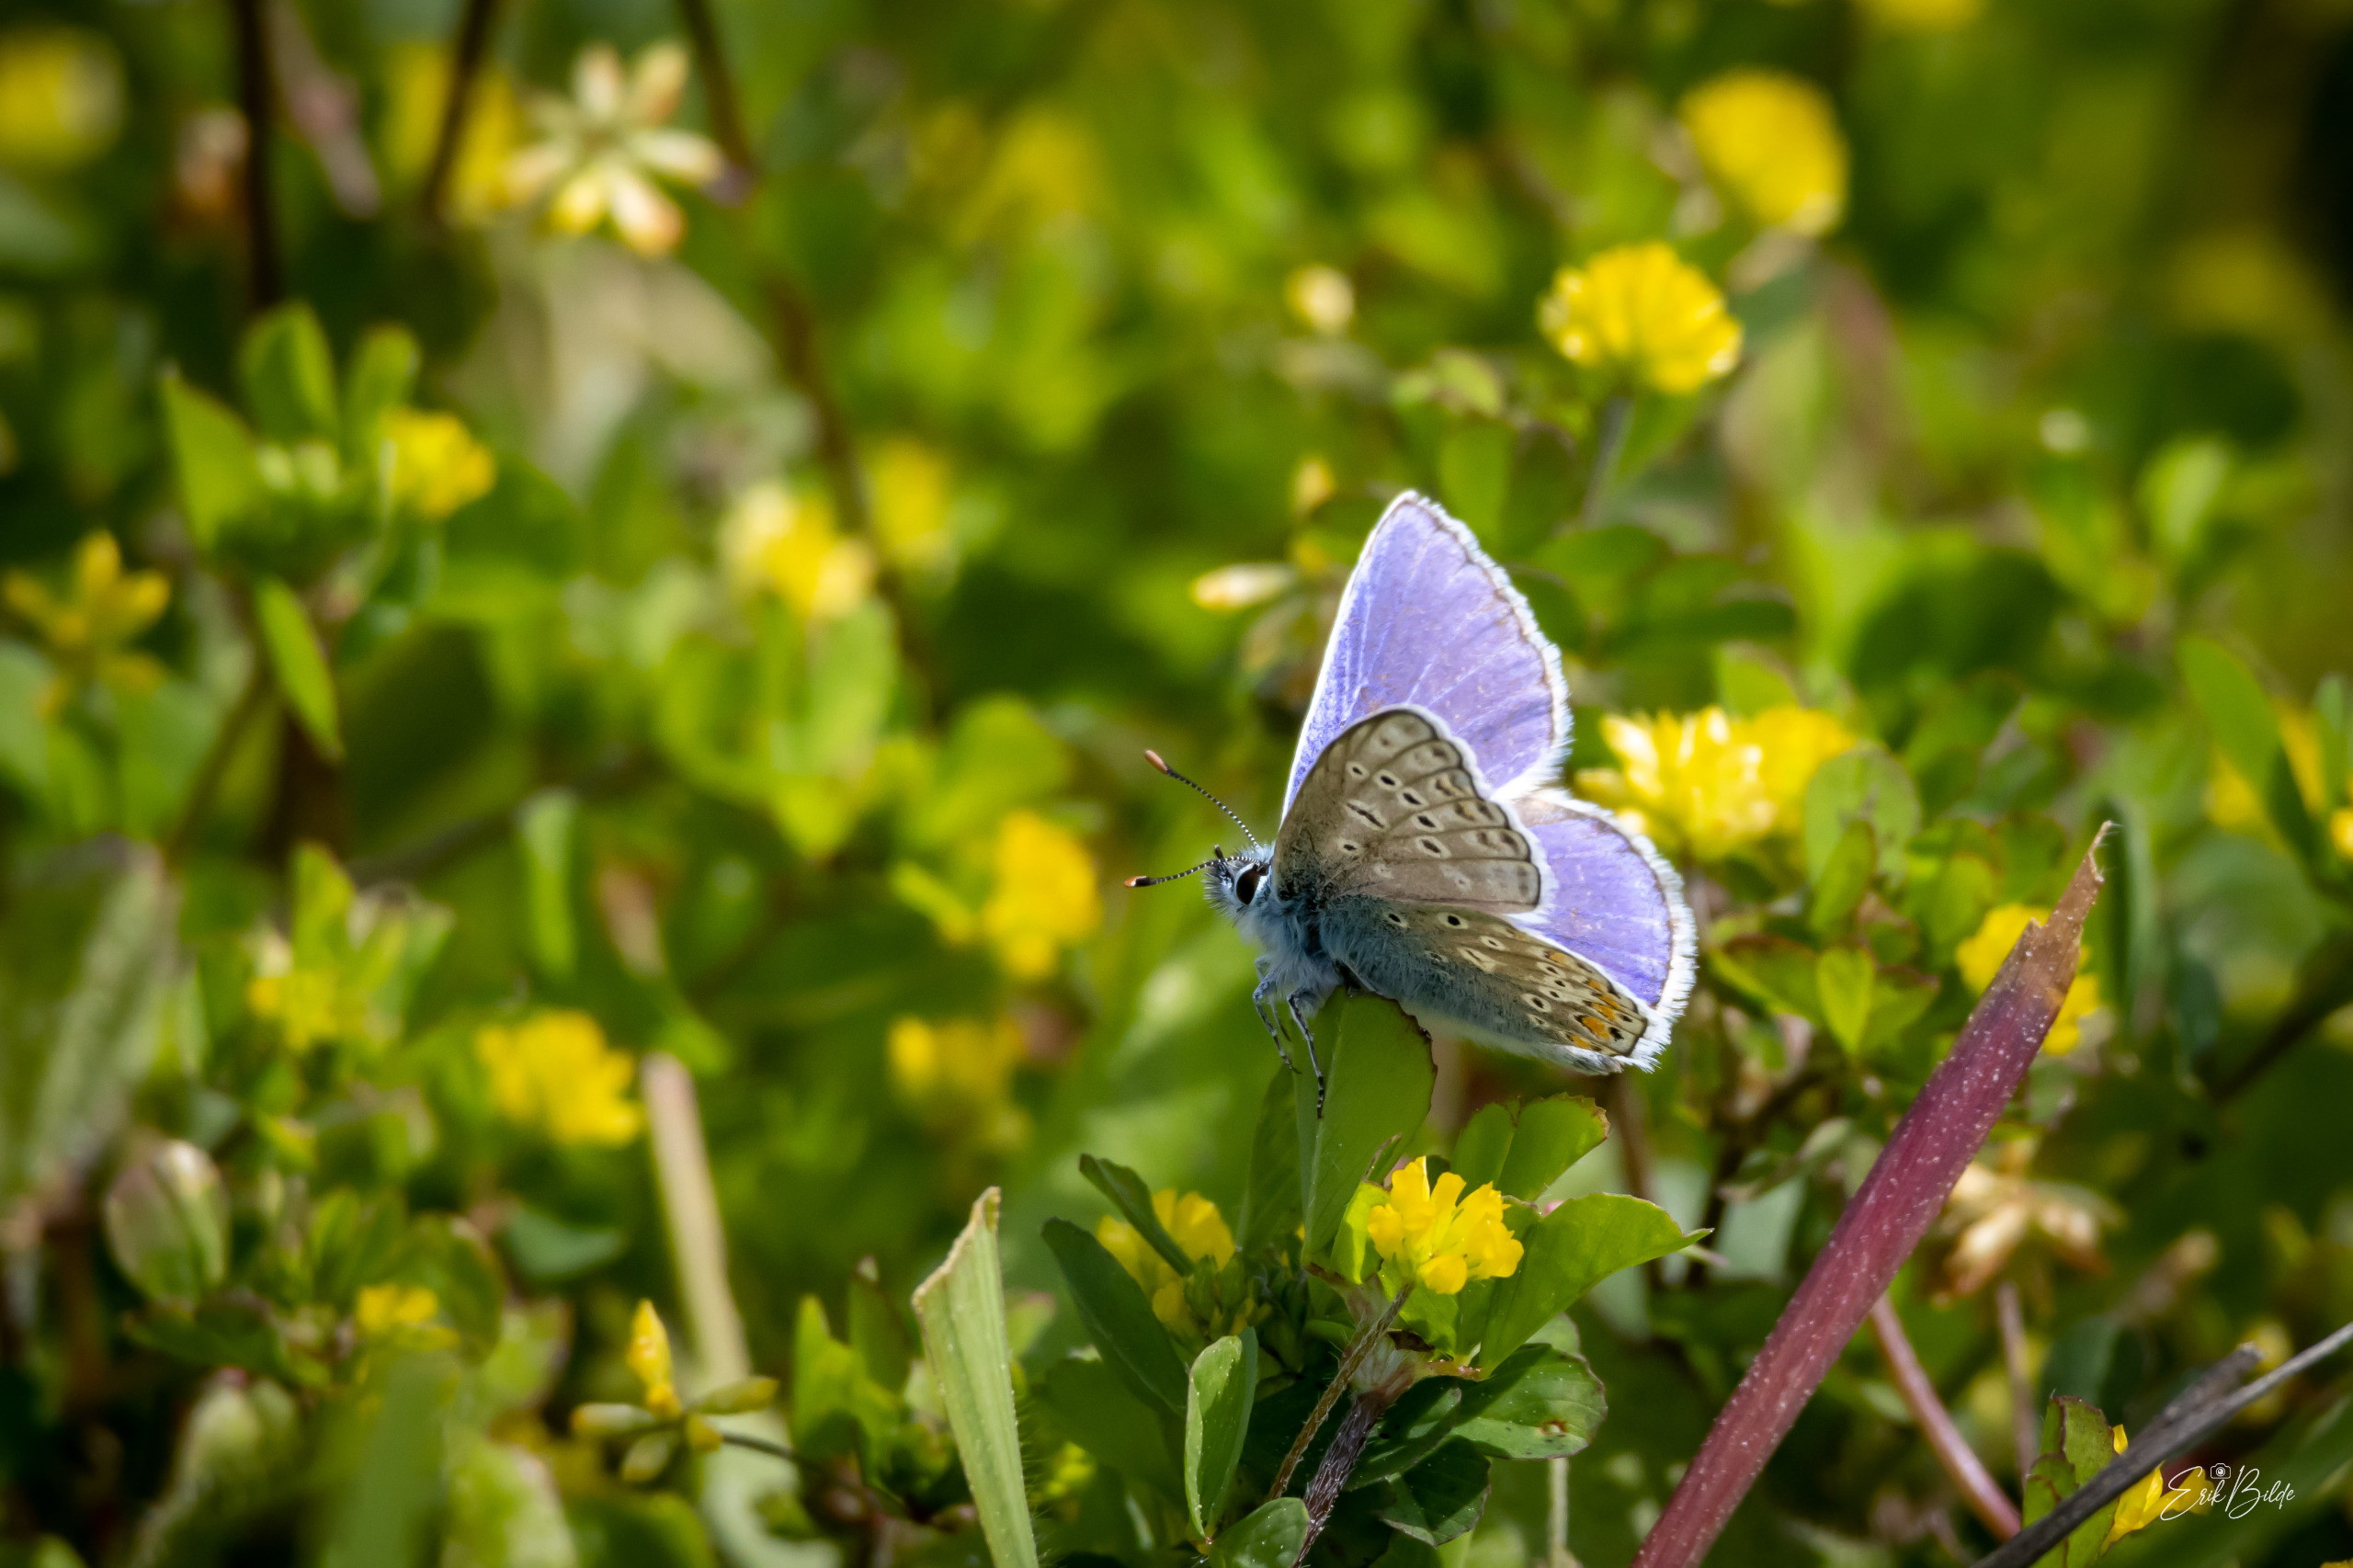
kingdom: Animalia
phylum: Arthropoda
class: Insecta
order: Lepidoptera
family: Lycaenidae
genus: Polyommatus
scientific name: Polyommatus icarus
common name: Almindelig blåfugl
